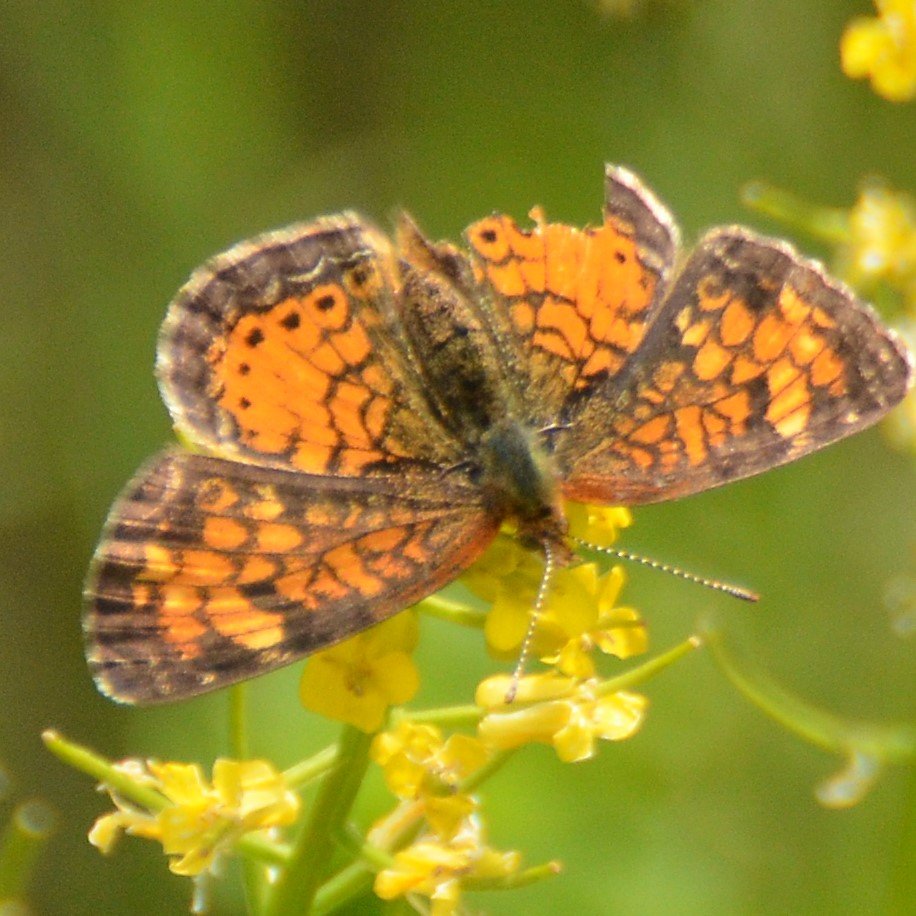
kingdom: Animalia
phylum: Arthropoda
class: Insecta
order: Lepidoptera
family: Nymphalidae
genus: Phyciodes
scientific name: Phyciodes tharos
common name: Northern Crescent
